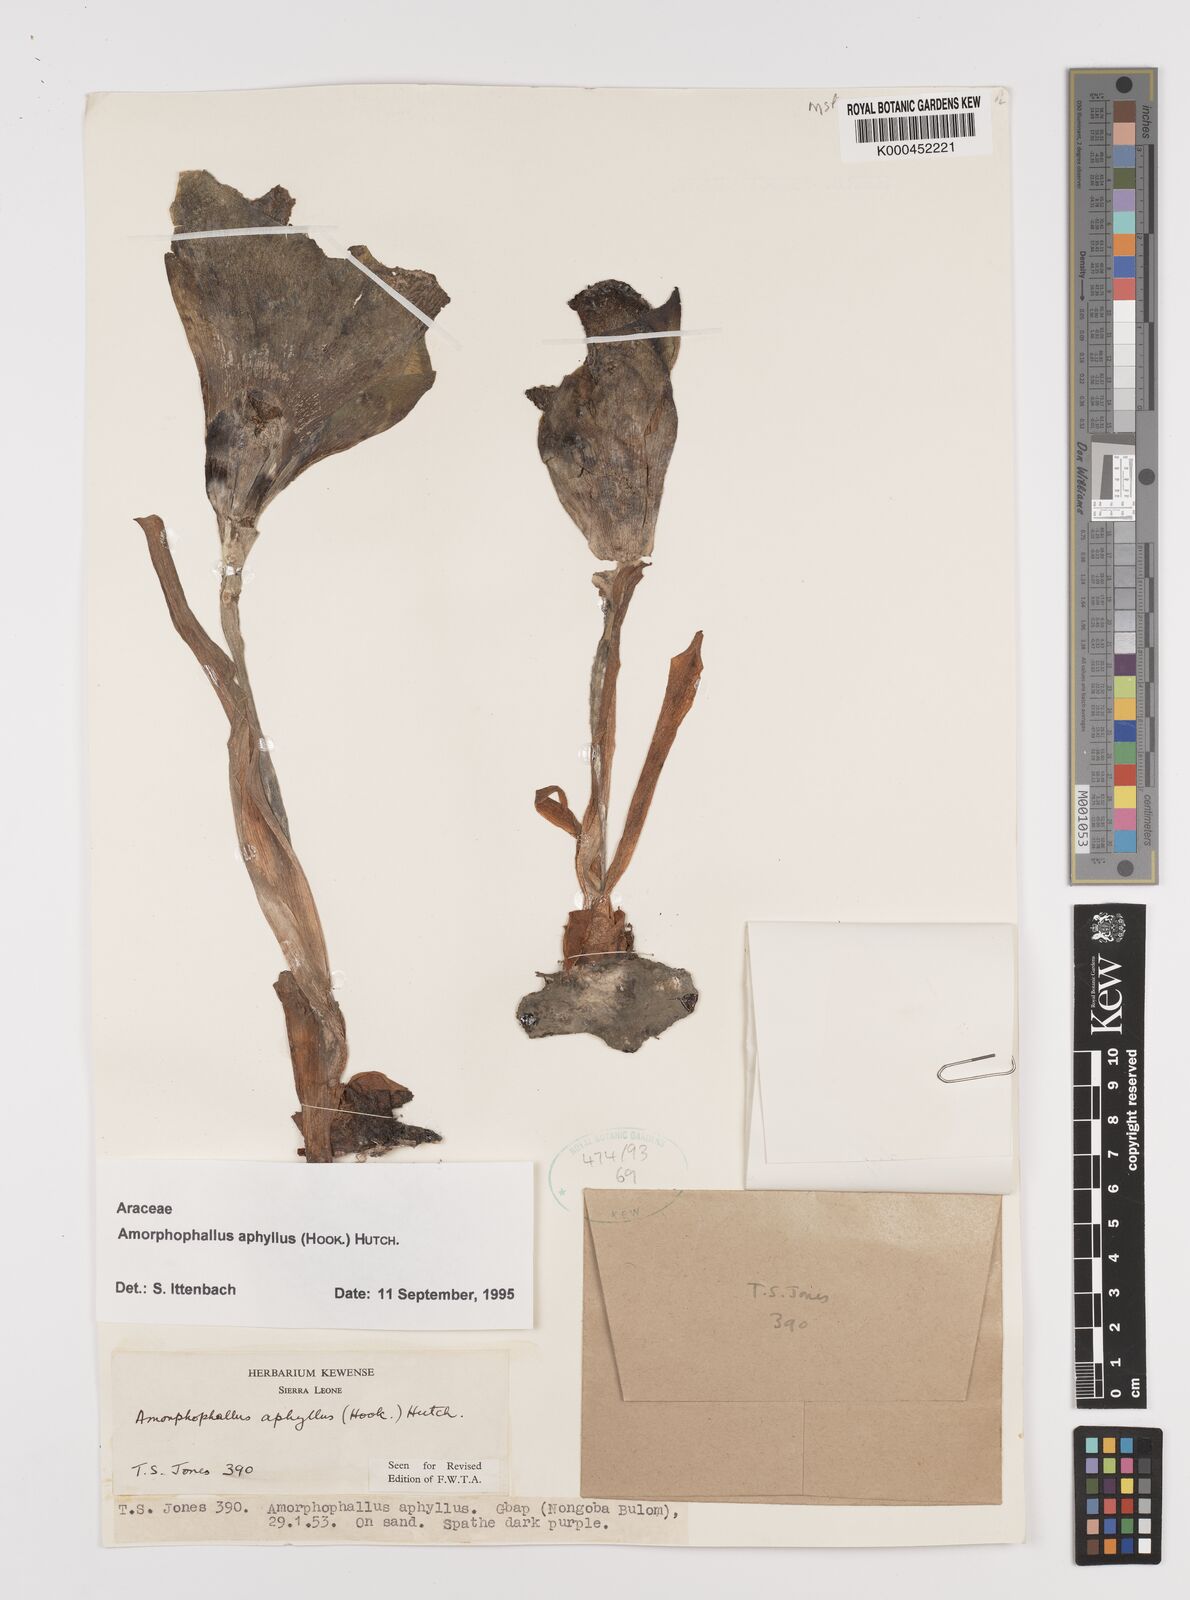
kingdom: Plantae
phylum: Tracheophyta
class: Liliopsida
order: Alismatales
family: Araceae
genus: Amorphophallus
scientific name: Amorphophallus aphyllus
